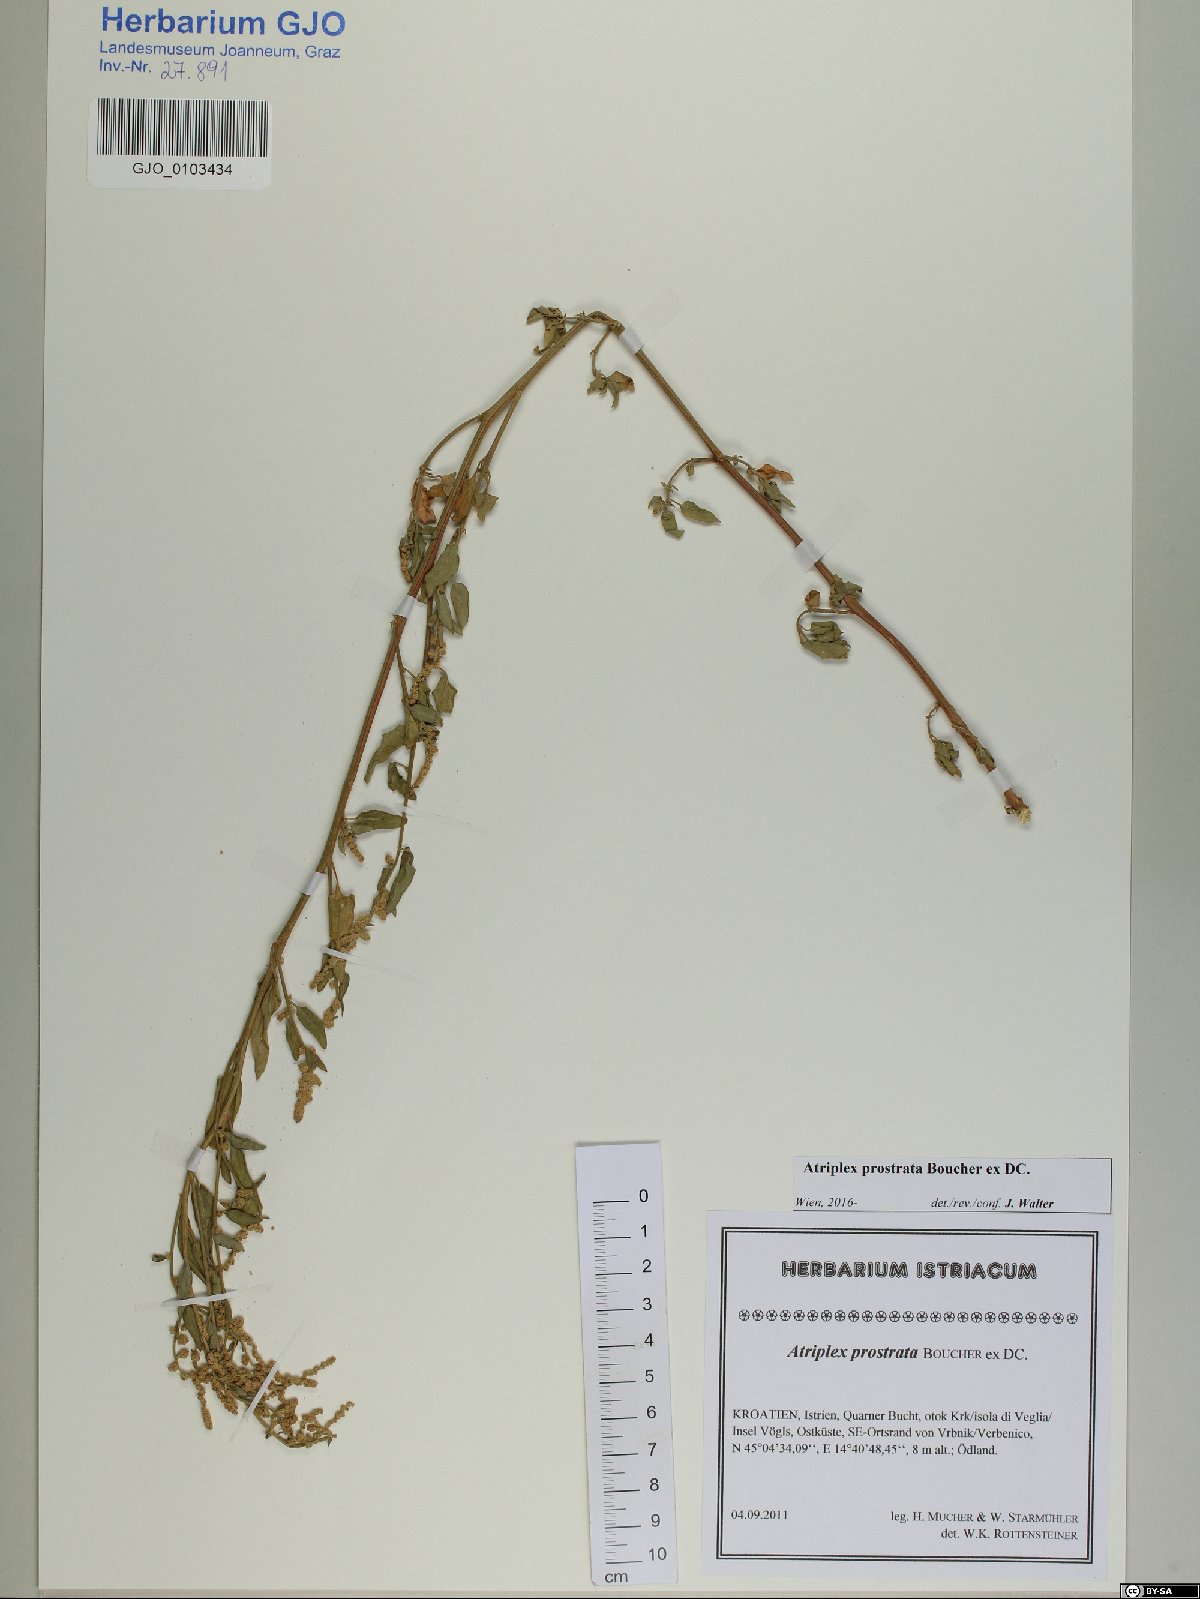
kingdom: Plantae
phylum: Tracheophyta
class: Magnoliopsida
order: Caryophyllales
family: Amaranthaceae
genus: Atriplex
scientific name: Atriplex prostrata
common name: Spear-leaved orache
